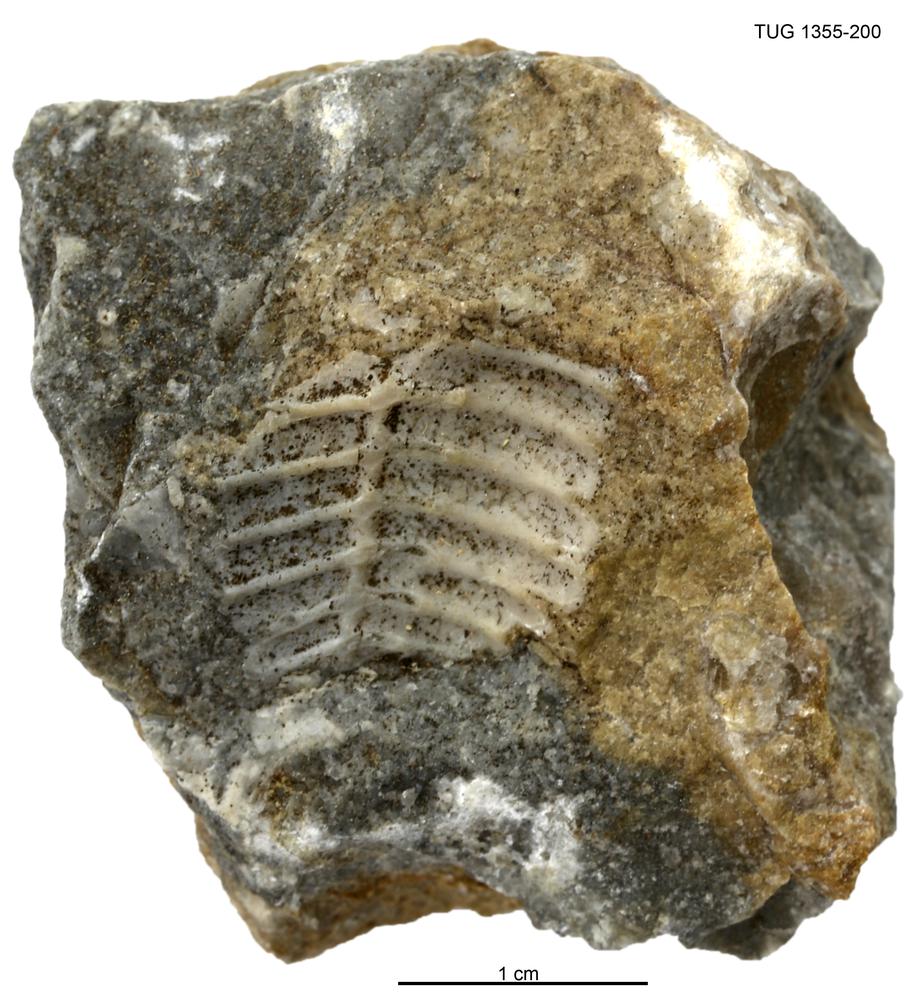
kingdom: Animalia
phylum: Arthropoda
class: Trilobita
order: Phacopida
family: Pterygometopidae
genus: Chasmops
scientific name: Chasmops macrourus
